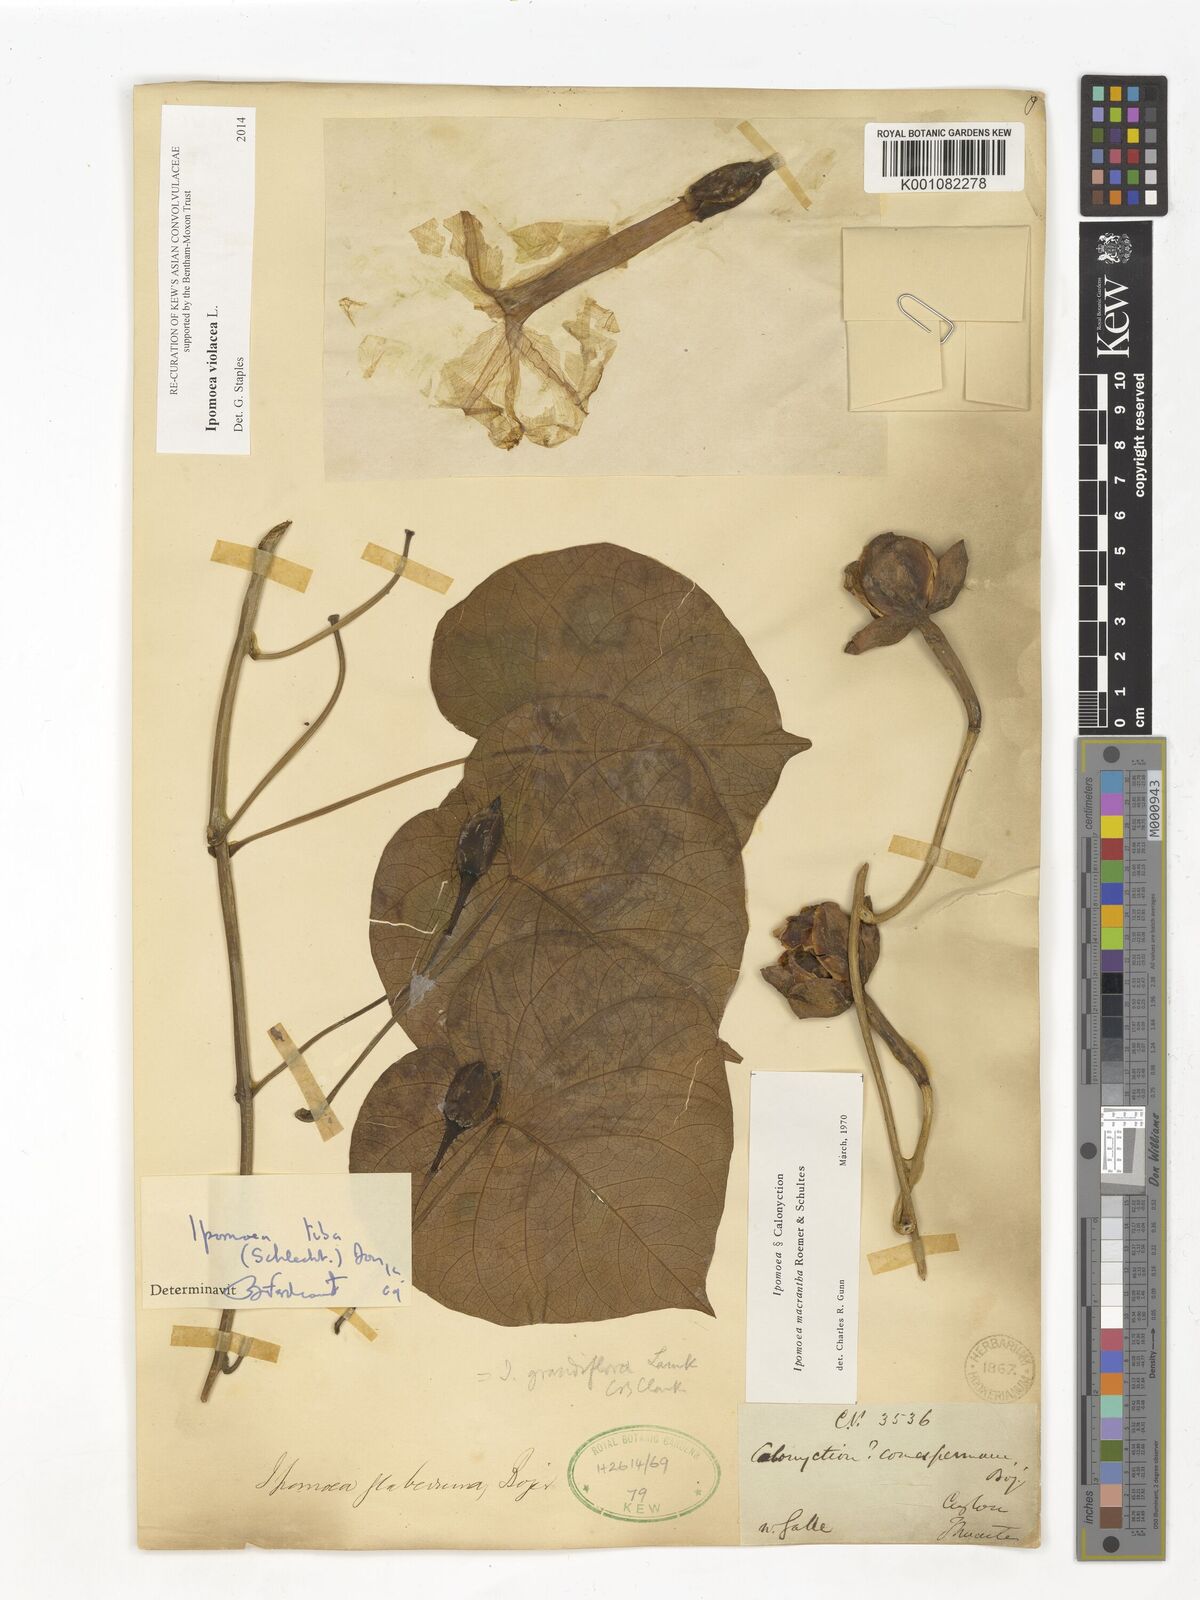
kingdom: Plantae
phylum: Tracheophyta
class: Magnoliopsida
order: Solanales
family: Convolvulaceae
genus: Ipomoea
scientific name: Ipomoea violacea
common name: Beach moonflower
